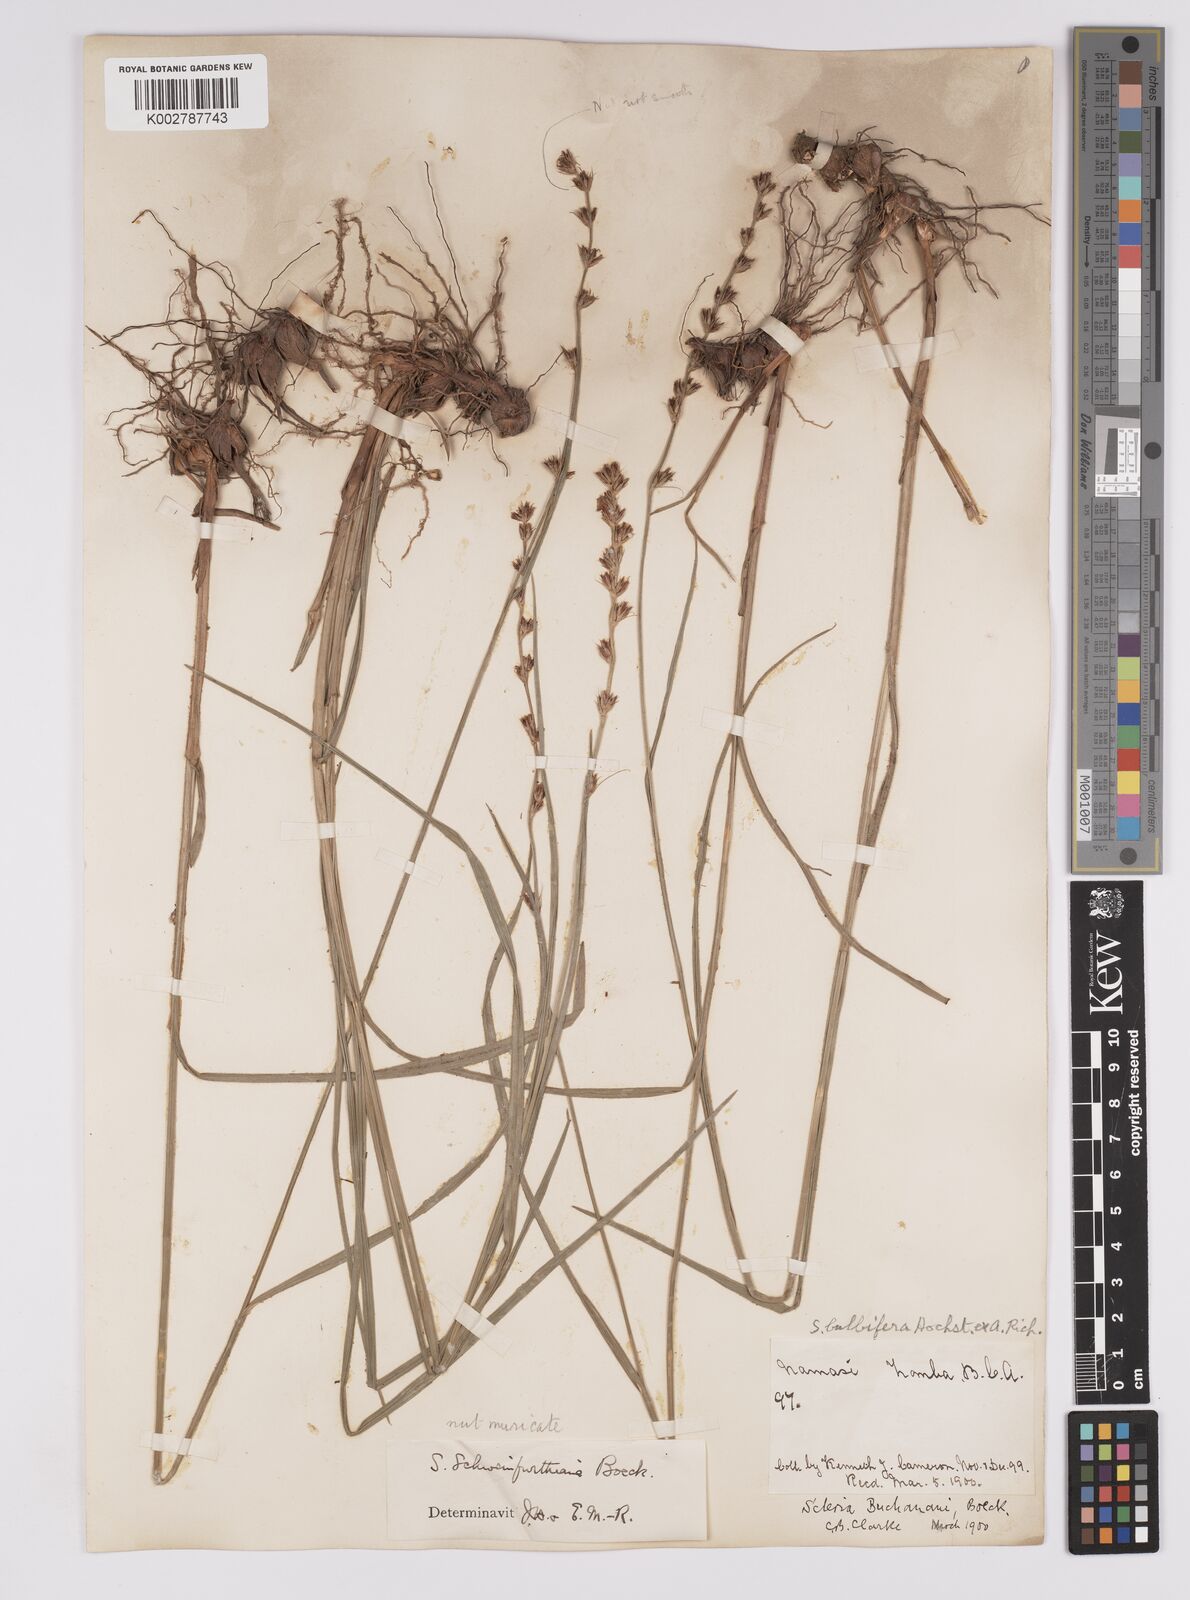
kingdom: Plantae
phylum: Tracheophyta
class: Liliopsida
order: Poales
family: Cyperaceae
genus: Scleria
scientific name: Scleria bulbifera
